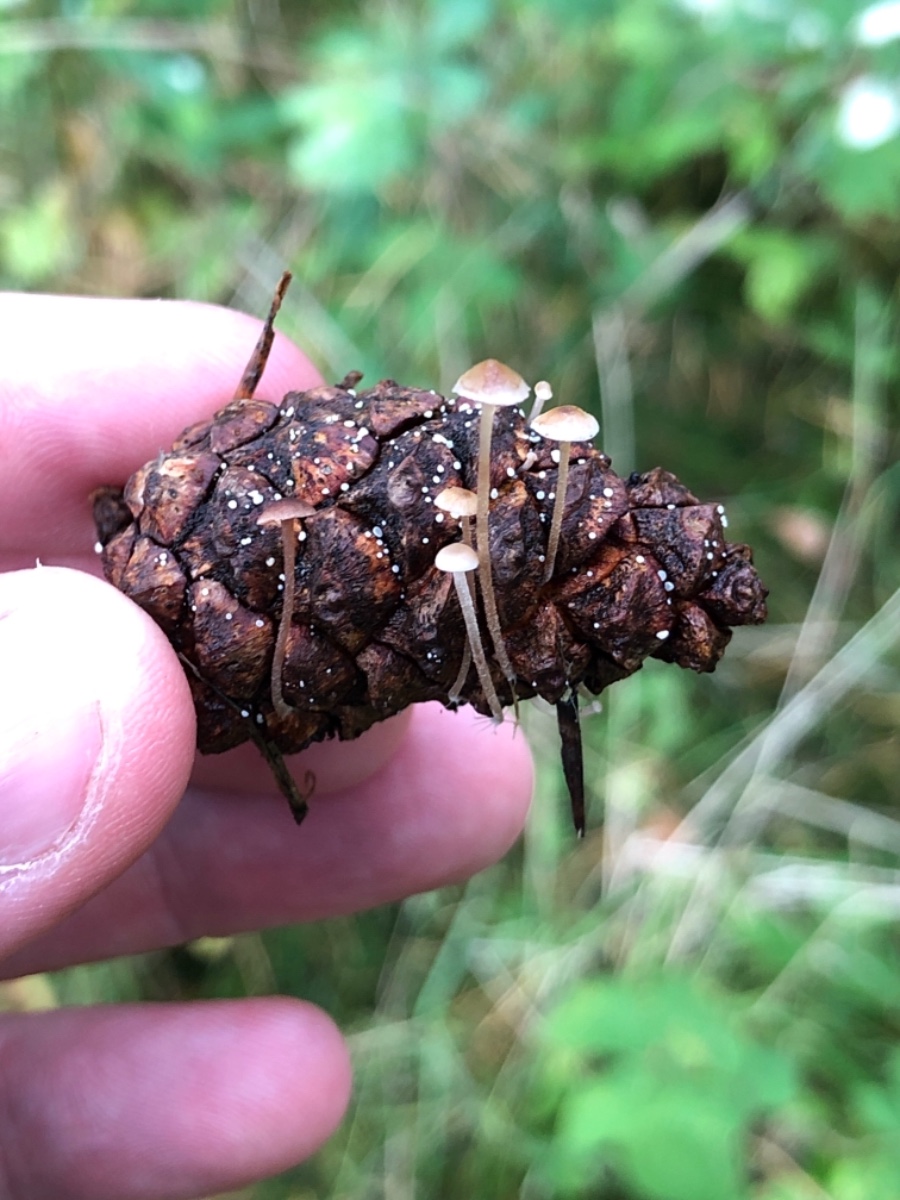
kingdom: Fungi
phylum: Basidiomycota
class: Agaricomycetes
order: Agaricales
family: Marasmiaceae
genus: Baeospora
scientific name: Baeospora myosura
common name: koglebruskhat
